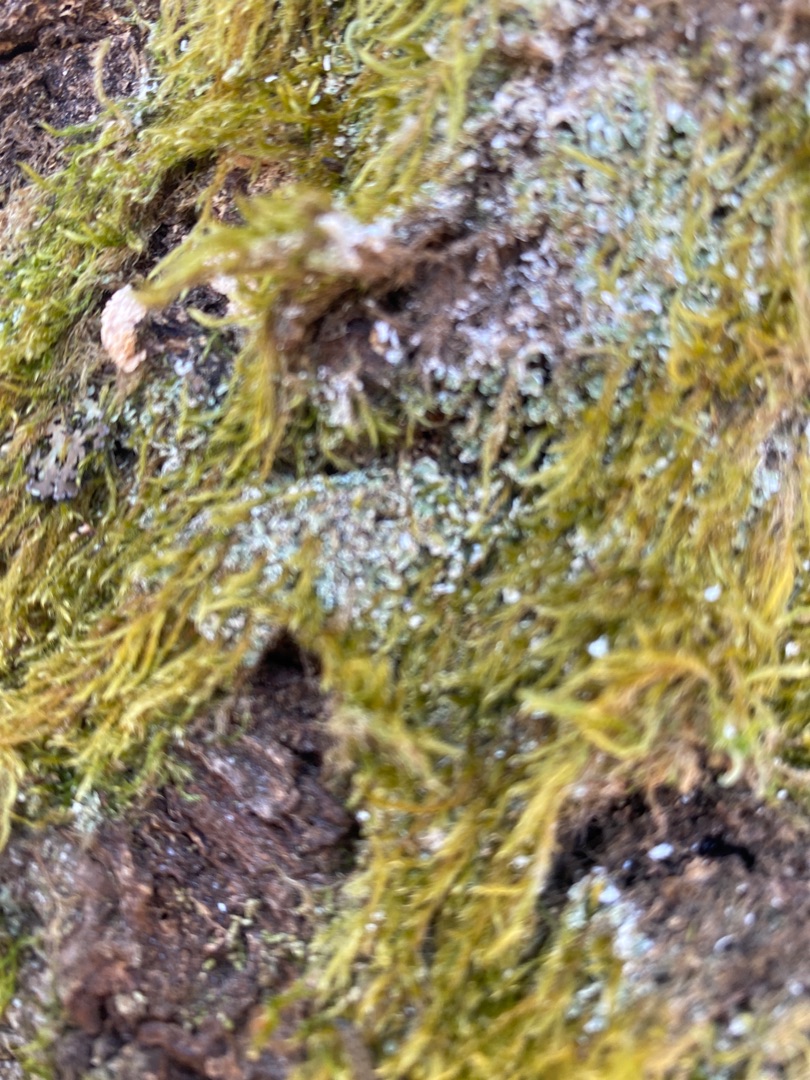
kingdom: Fungi
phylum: Ascomycota
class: Lecanoromycetes
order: Lecanorales
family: Cladoniaceae
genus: Cladonia
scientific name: Cladonia
